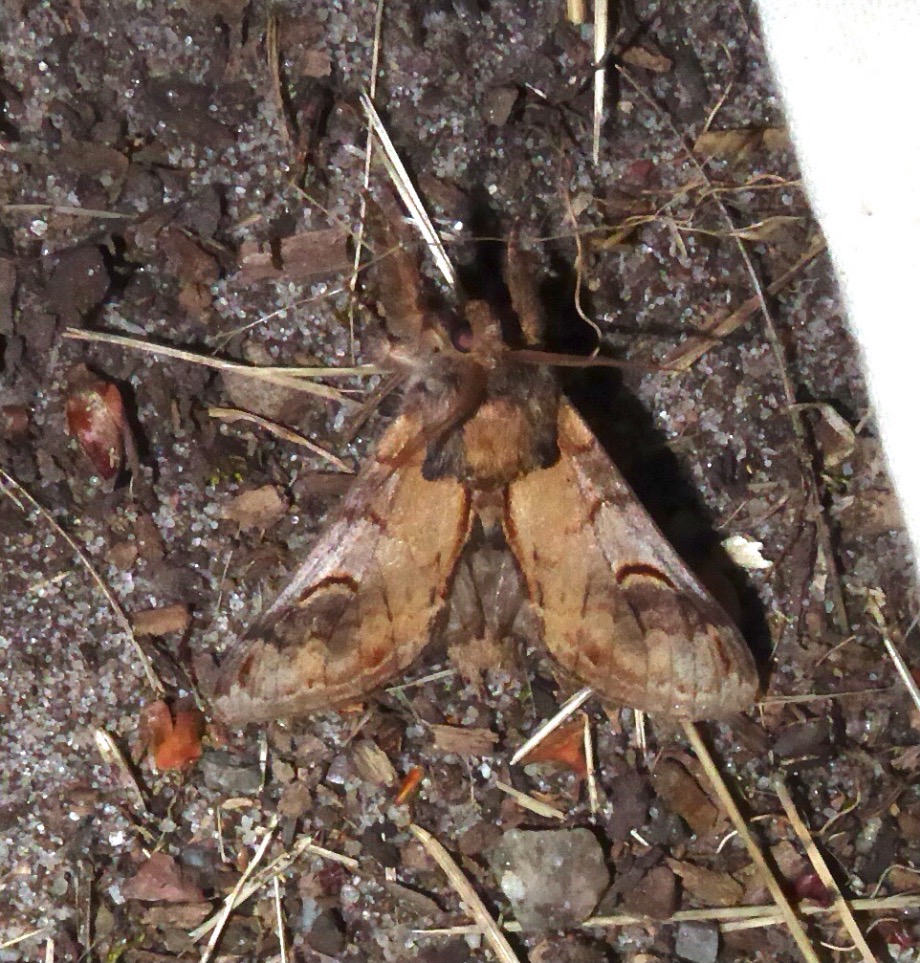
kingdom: Animalia
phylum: Arthropoda
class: Insecta
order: Lepidoptera
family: Notodontidae
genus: Notodonta
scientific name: Notodonta ziczac
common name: Zigzagspinder
